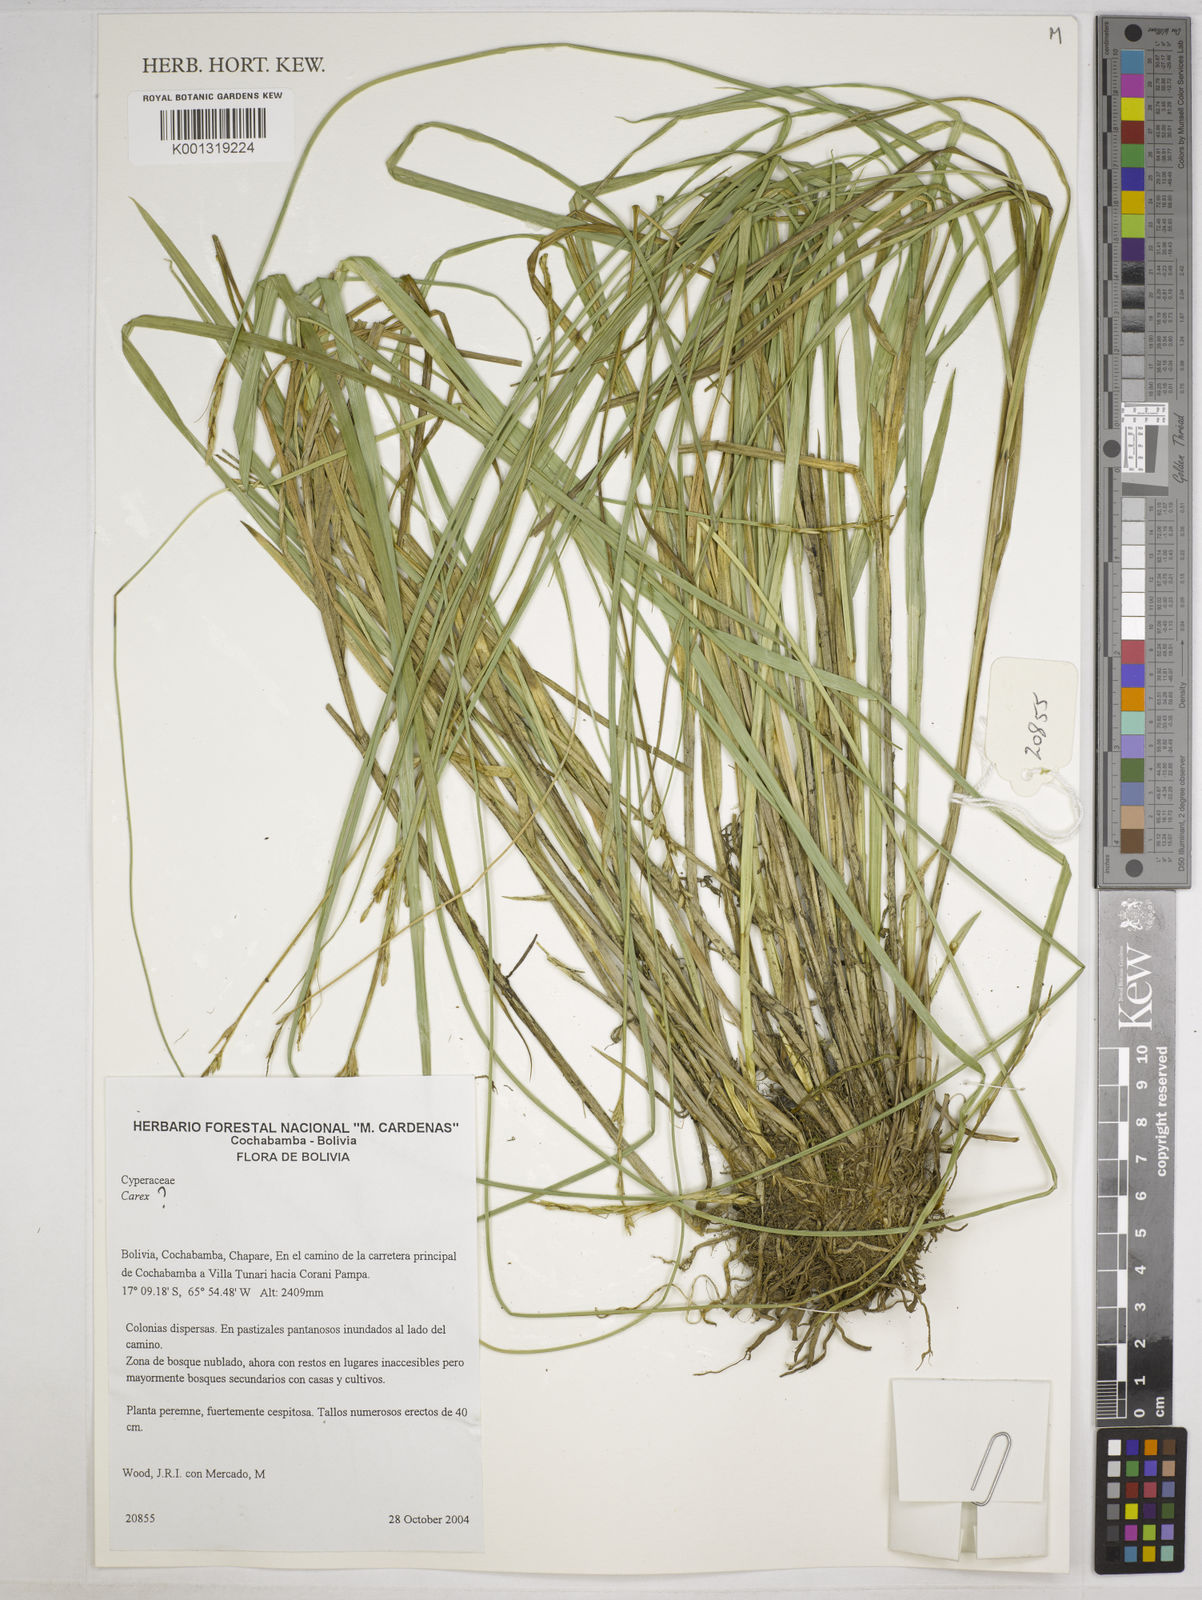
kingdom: Plantae
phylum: Tracheophyta
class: Liliopsida
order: Poales
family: Cyperaceae
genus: Carex
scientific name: Carex bonplandii
